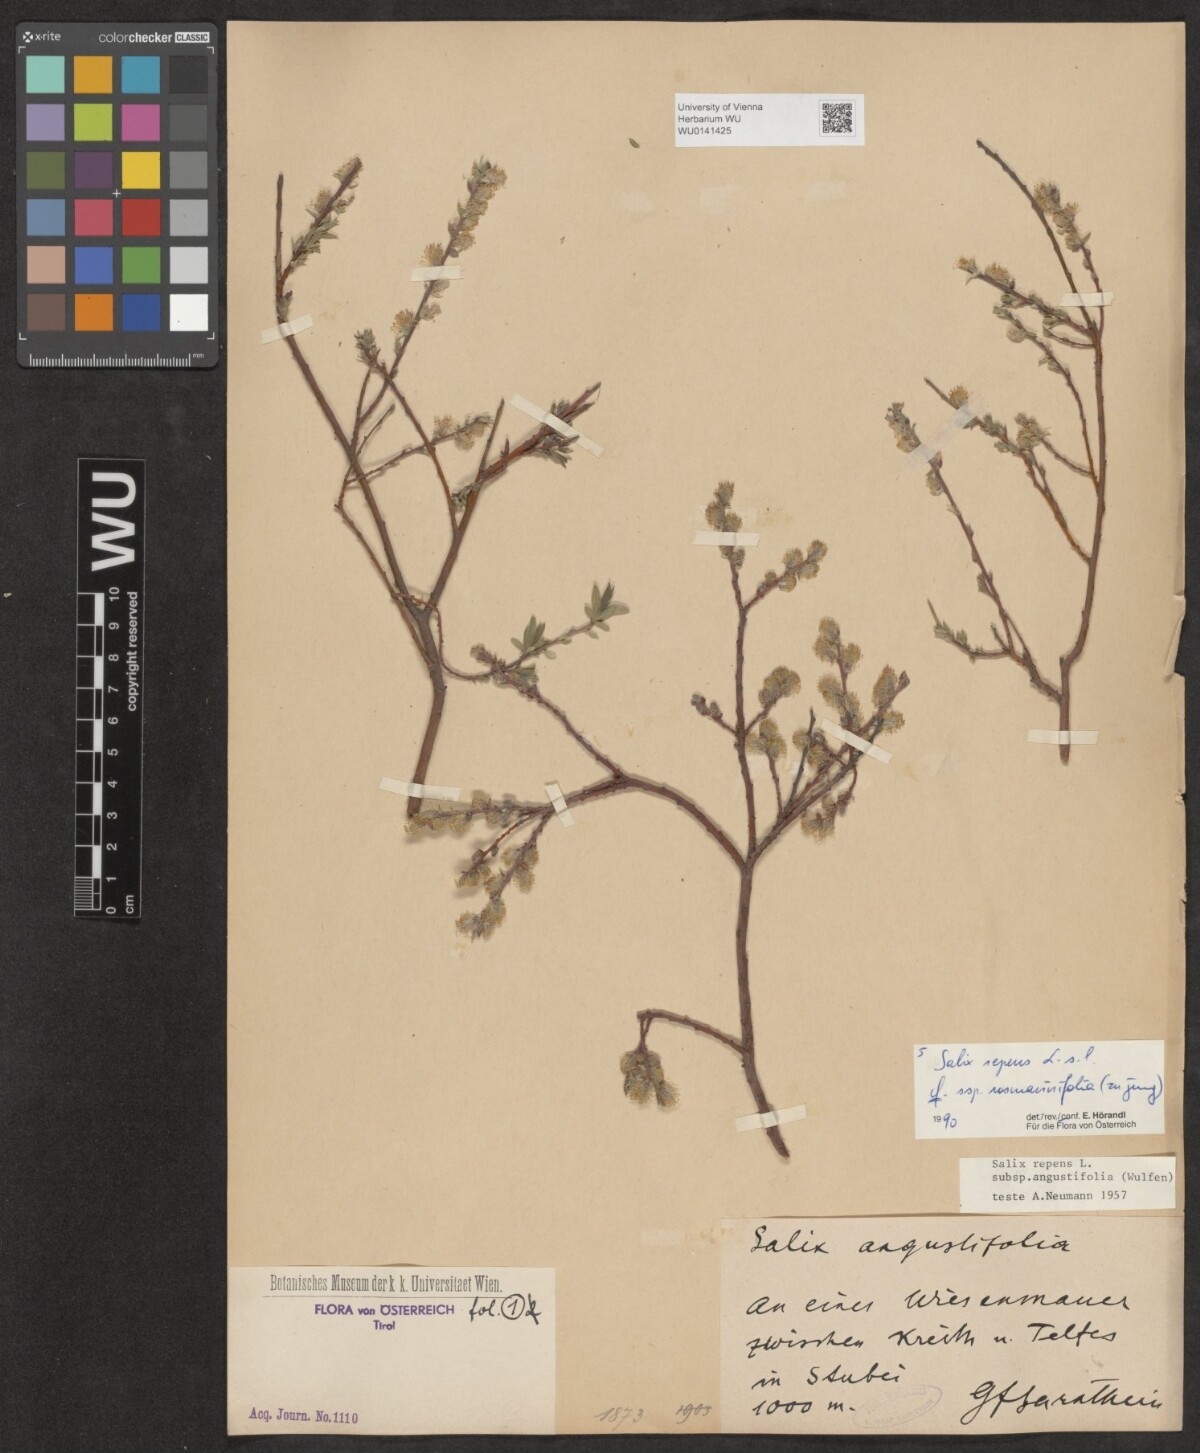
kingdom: Plantae
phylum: Tracheophyta
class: Magnoliopsida
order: Malpighiales
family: Salicaceae
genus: Salix
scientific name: Salix repens
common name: Creeping willow
